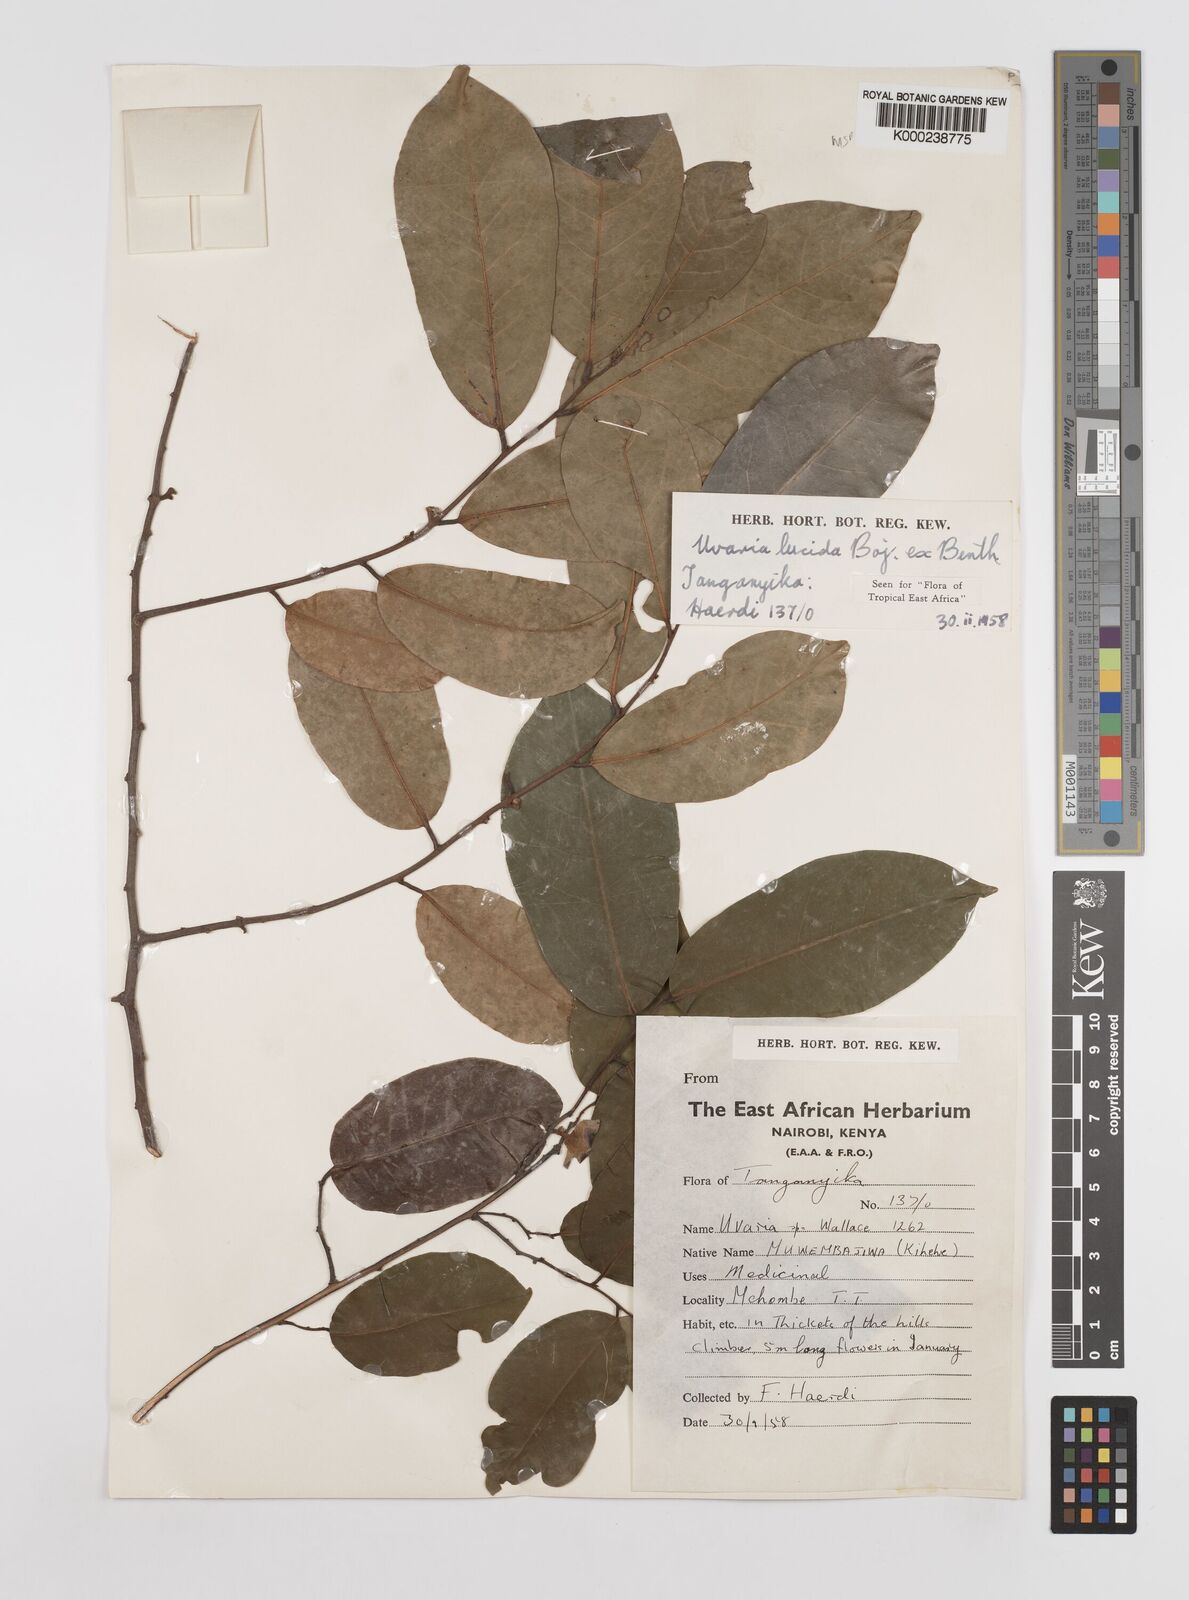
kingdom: Plantae
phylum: Tracheophyta
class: Magnoliopsida
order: Magnoliales
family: Annonaceae
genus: Uvaria
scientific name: Uvaria lucida
